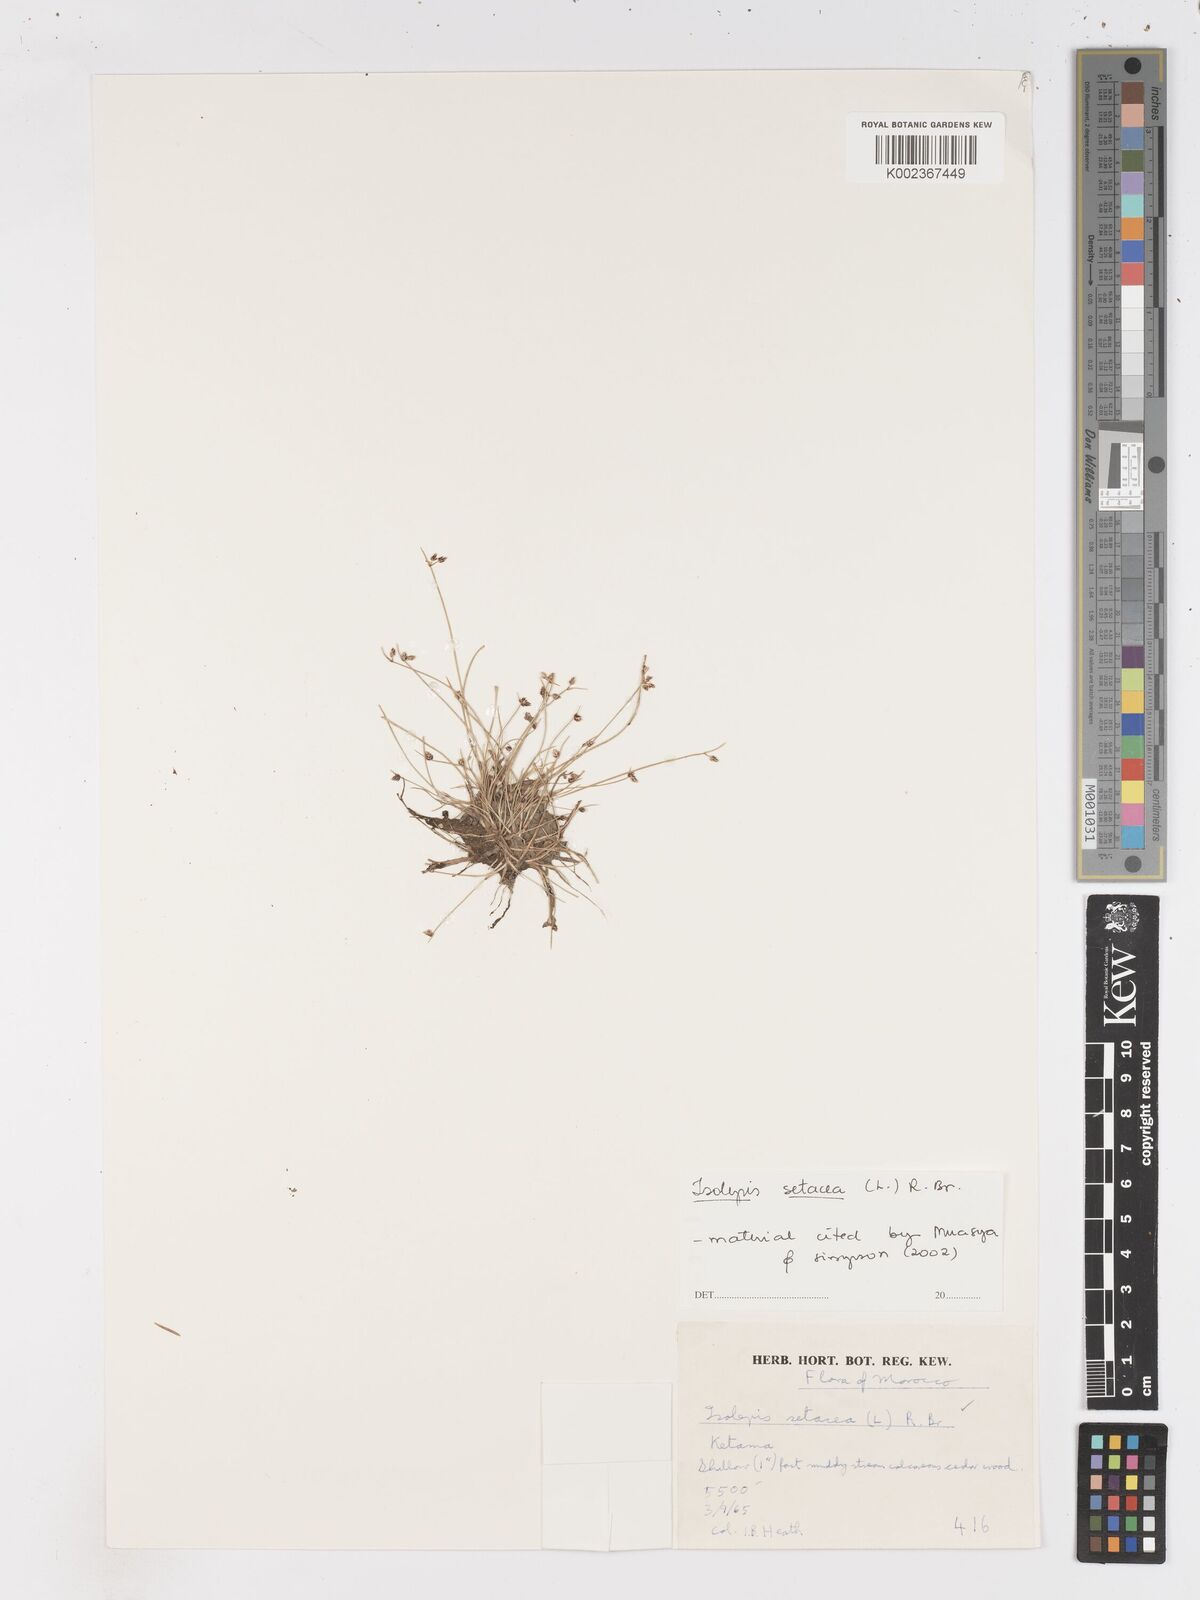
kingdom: Plantae
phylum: Tracheophyta
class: Liliopsida
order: Poales
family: Cyperaceae
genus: Isolepis
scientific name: Isolepis setacea
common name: Bristle club-rush
